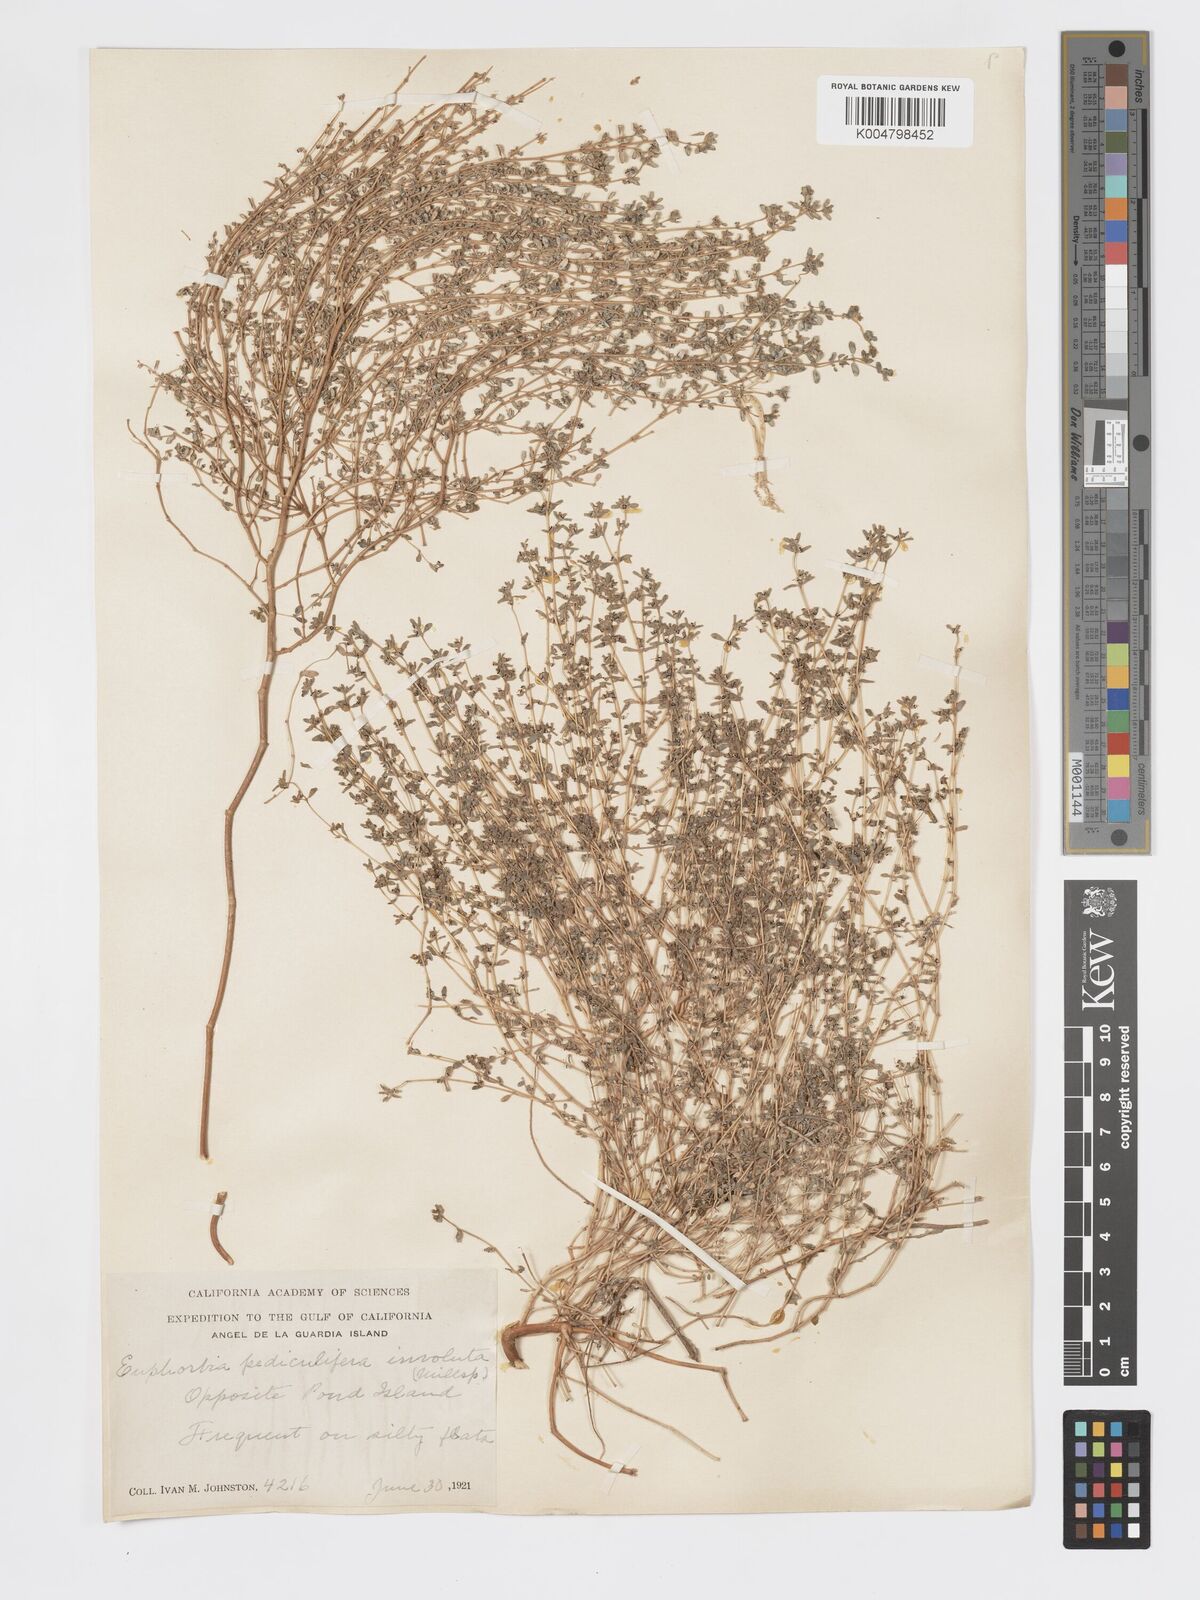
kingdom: Plantae
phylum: Tracheophyta
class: Magnoliopsida
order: Malpighiales
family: Euphorbiaceae
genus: Euphorbia
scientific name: Euphorbia pediculifera
